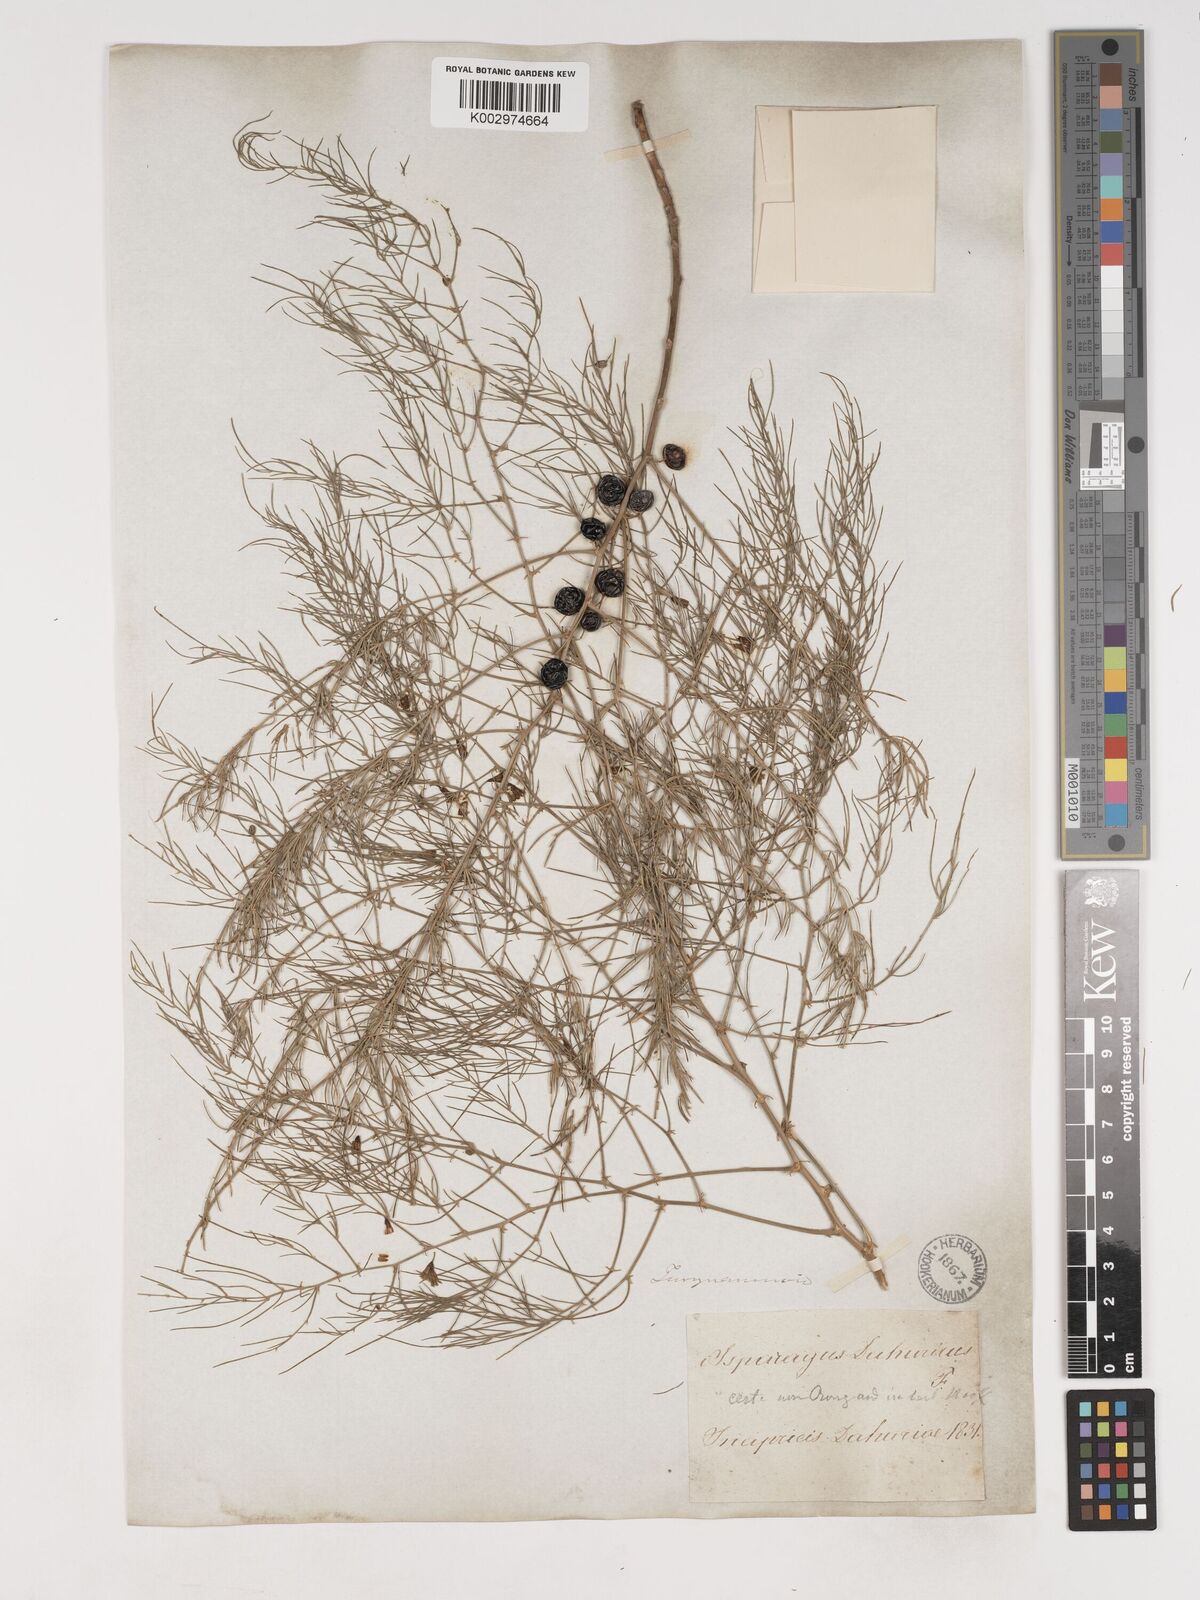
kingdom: Plantae
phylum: Tracheophyta
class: Liliopsida
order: Asparagales
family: Asparagaceae
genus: Asparagus
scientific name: Asparagus
